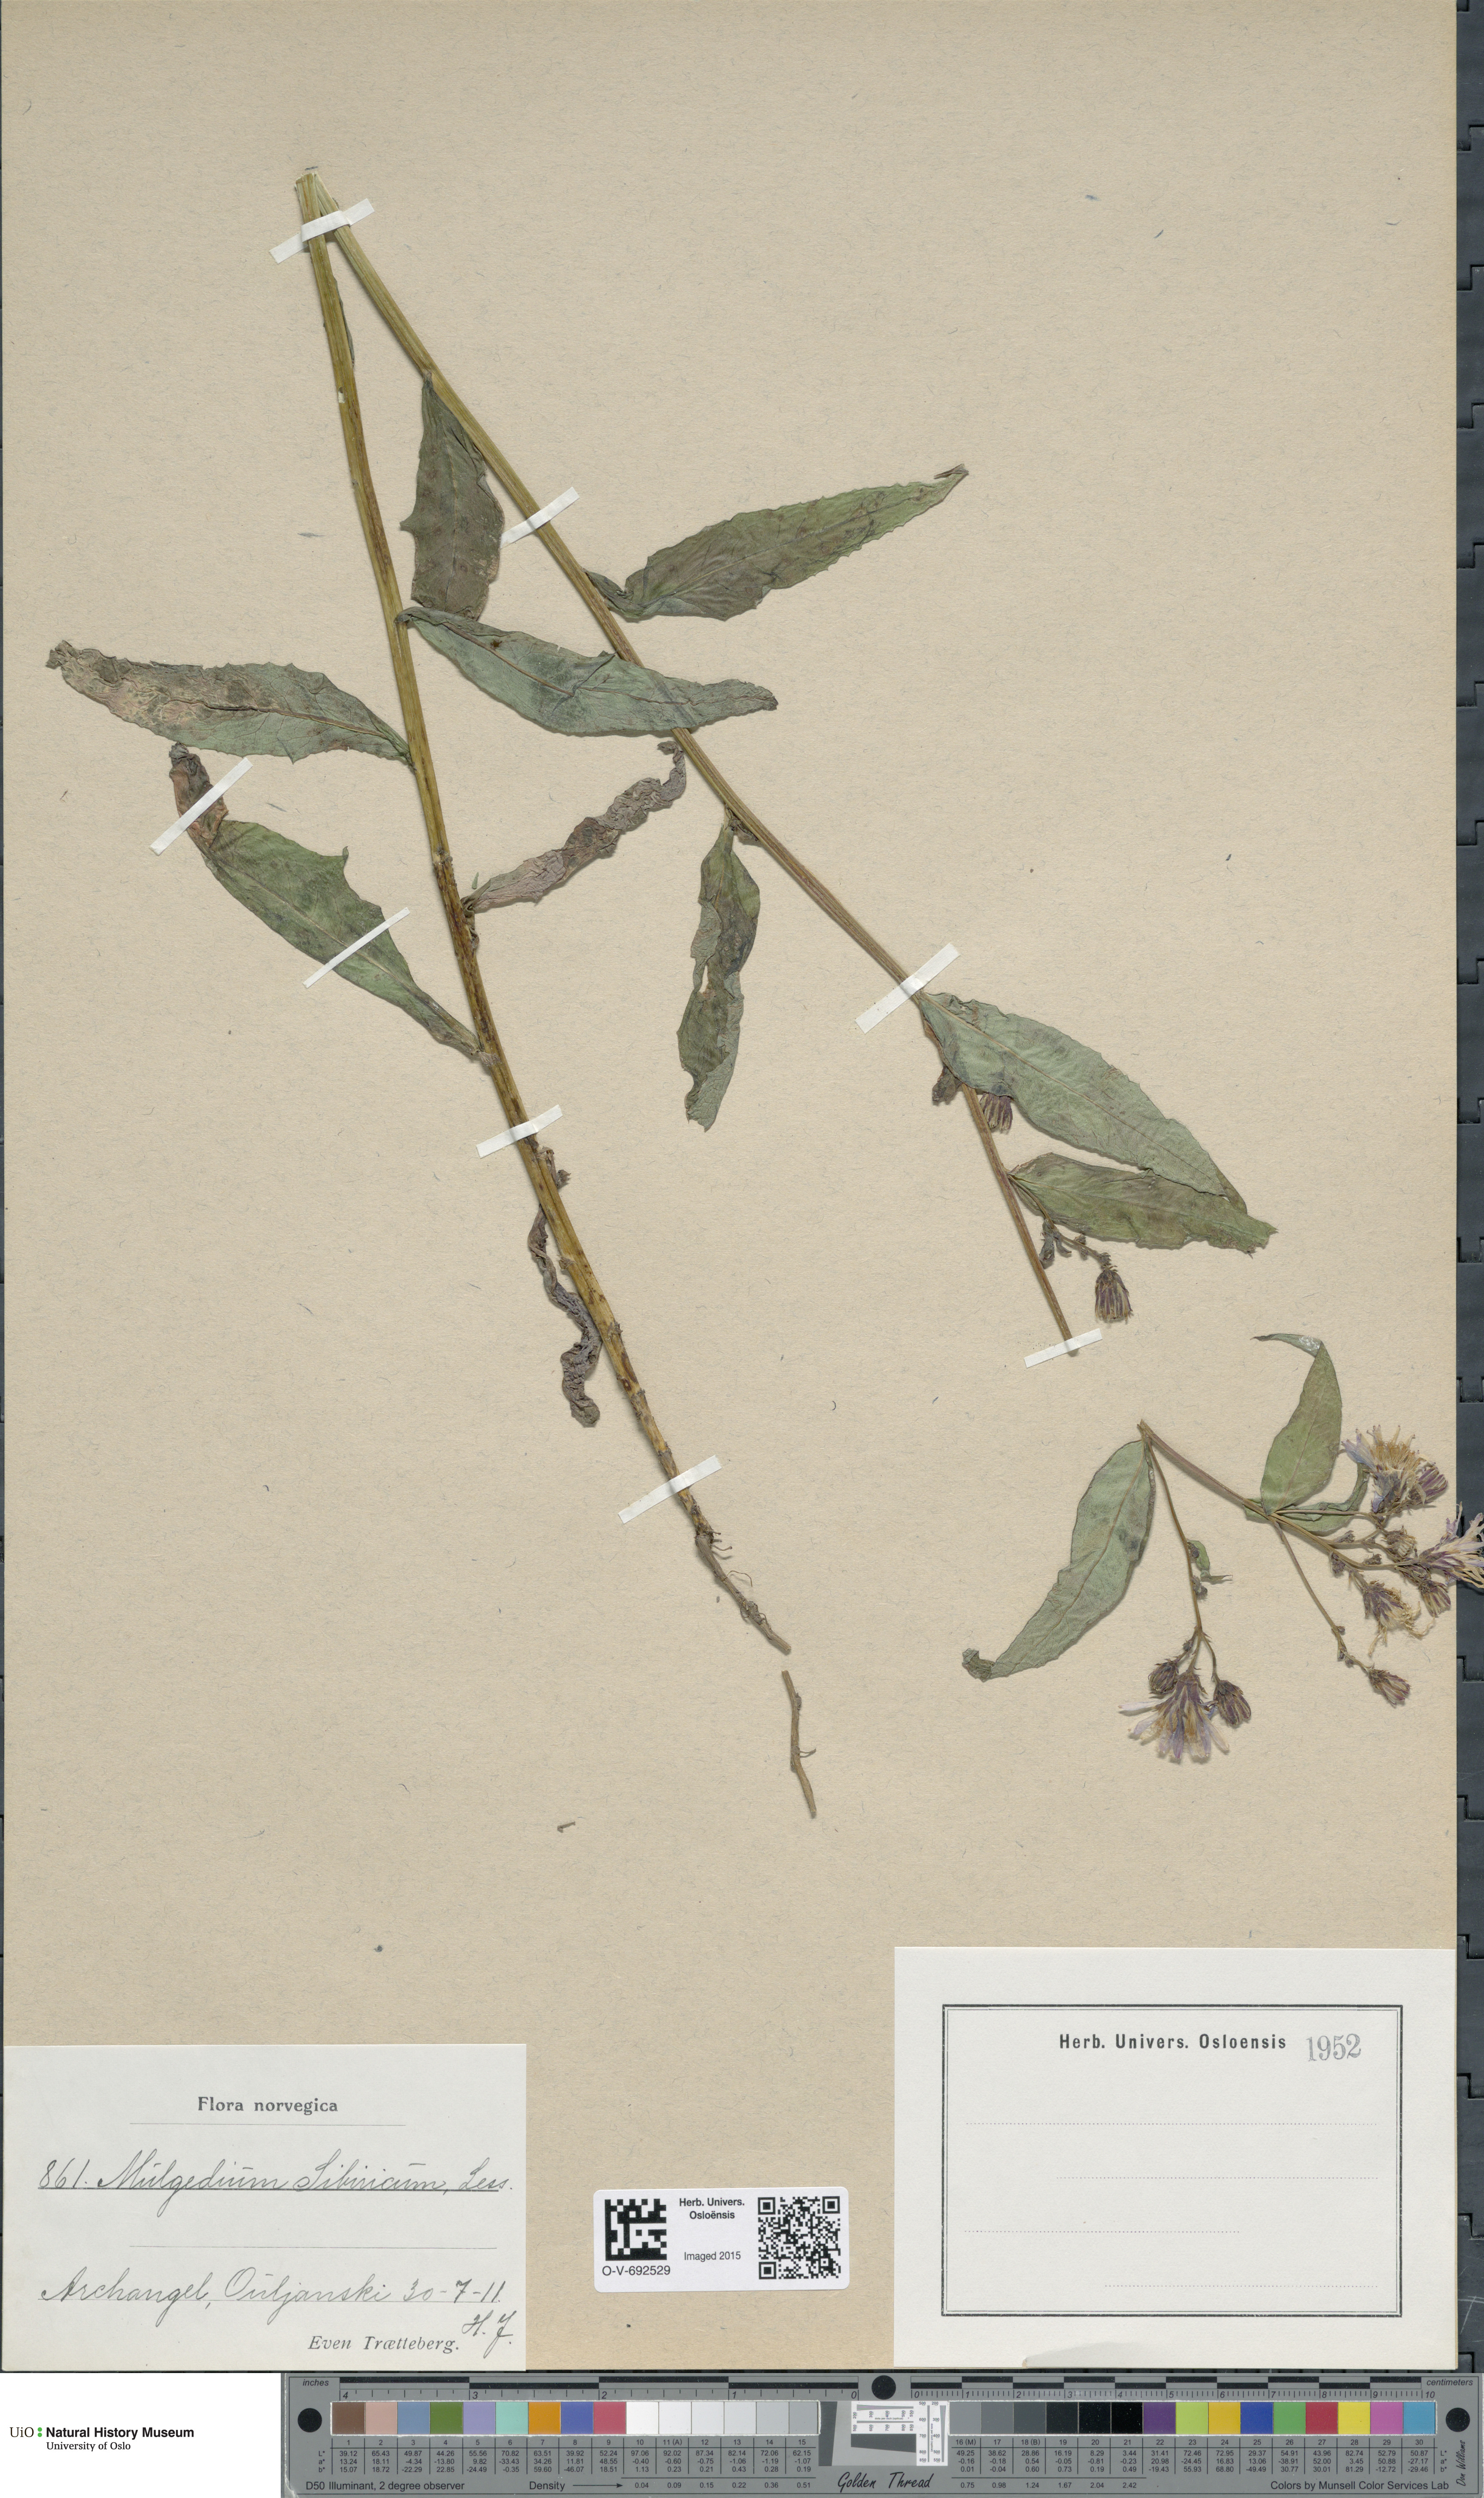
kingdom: Plantae
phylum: Tracheophyta
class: Magnoliopsida
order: Asterales
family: Asteraceae
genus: Lactuca
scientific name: Lactuca sibirica
